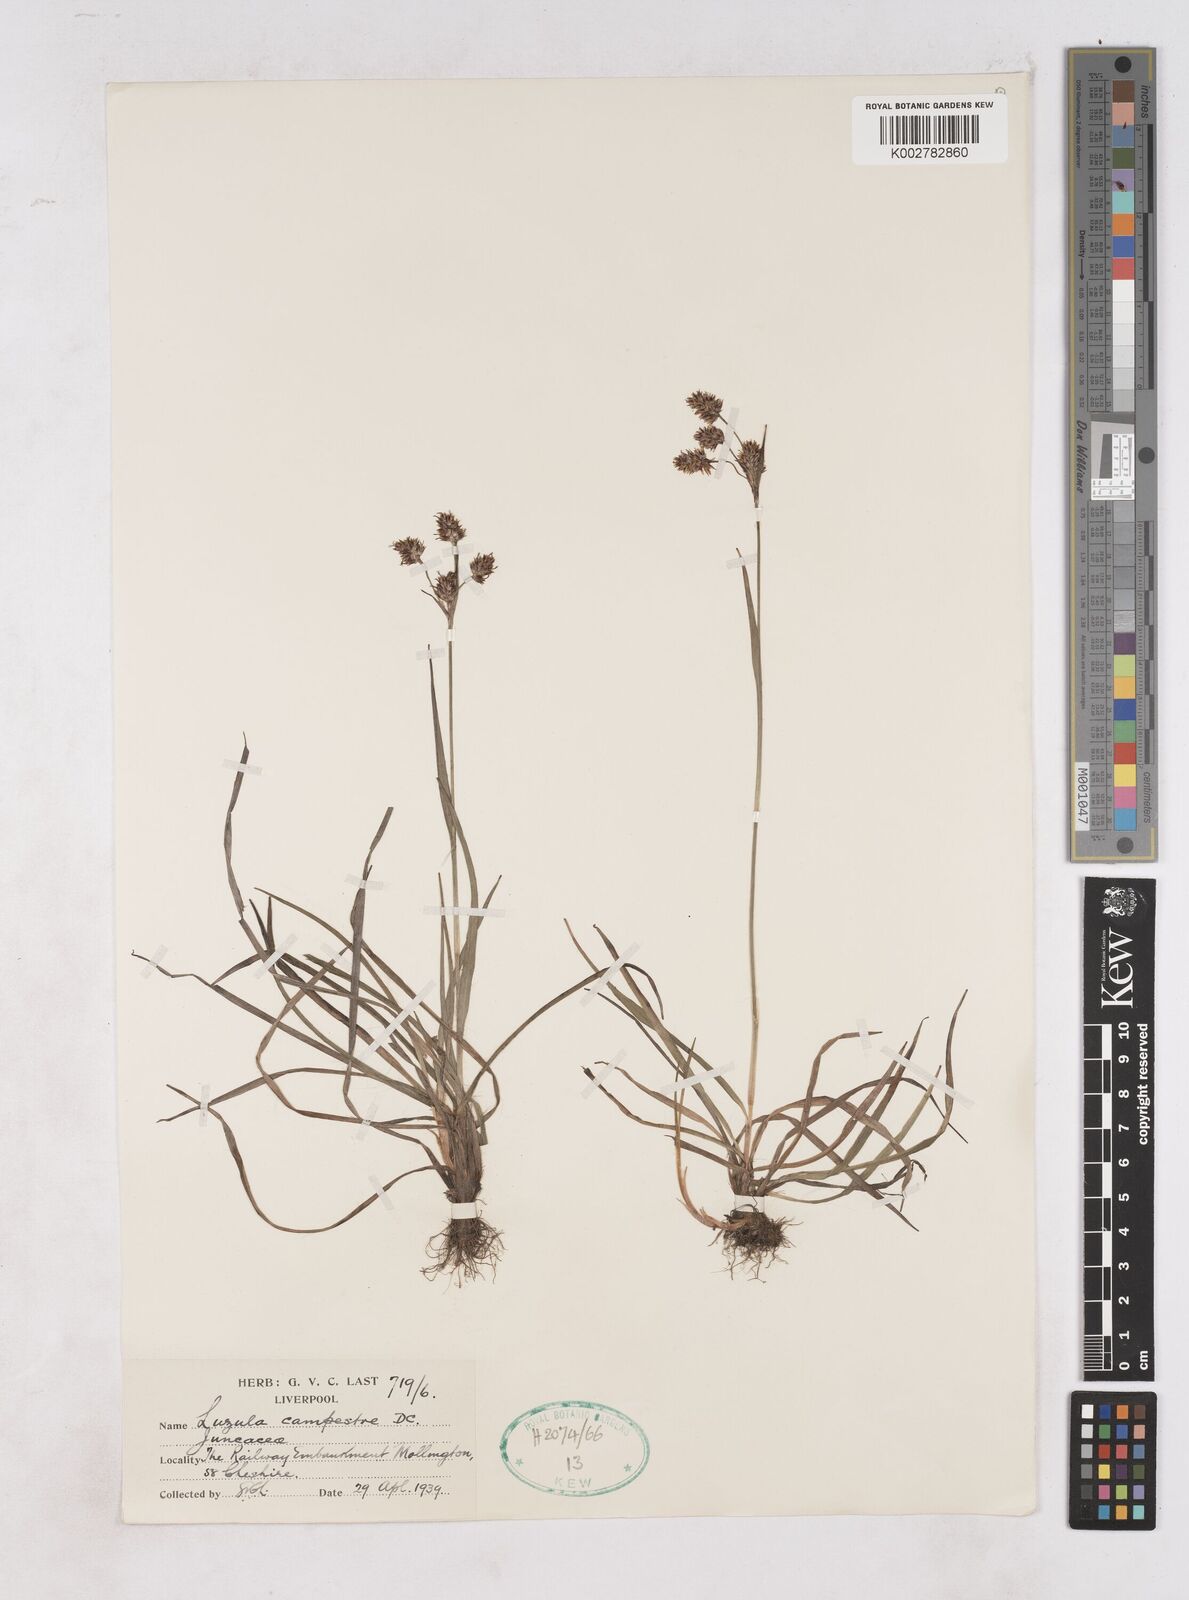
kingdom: Plantae
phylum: Tracheophyta
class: Liliopsida
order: Poales
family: Juncaceae
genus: Luzula
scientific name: Luzula campestris
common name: Field wood-rush
